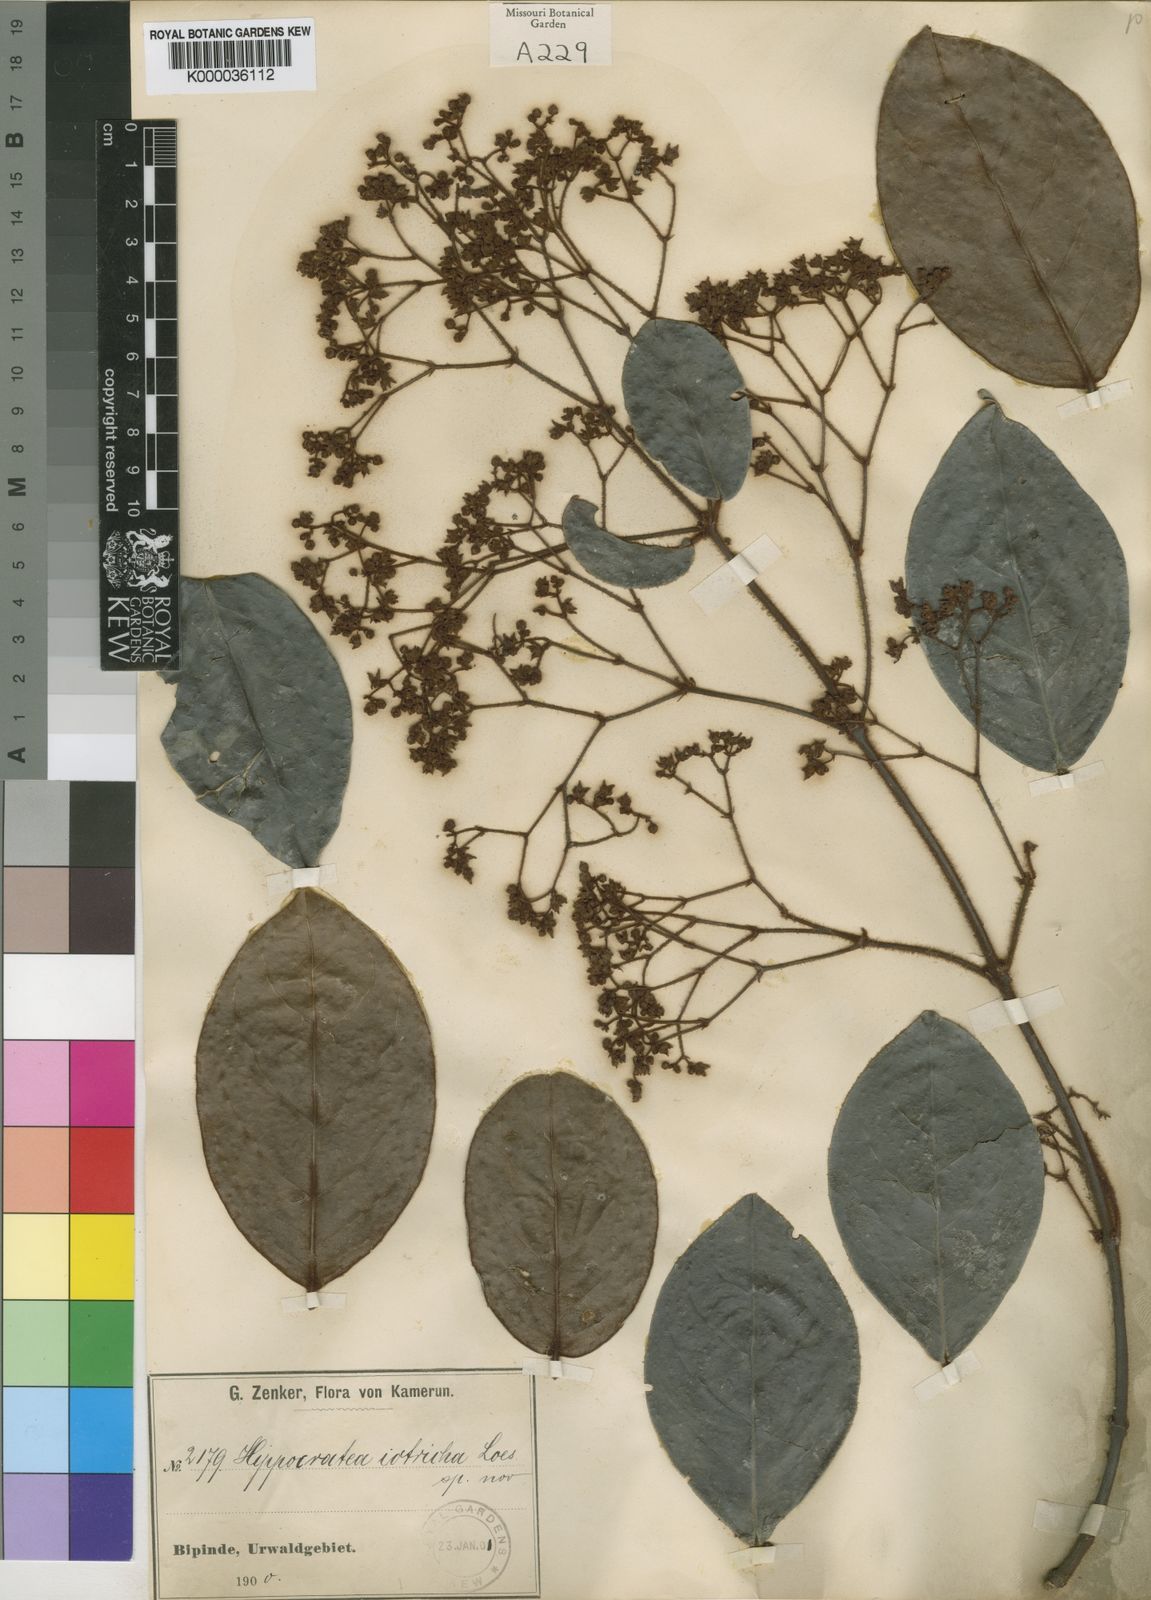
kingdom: Plantae
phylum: Tracheophyta
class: Magnoliopsida
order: Celastrales
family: Celastraceae
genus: Loeseneriella
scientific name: Loeseneriella iotricha
